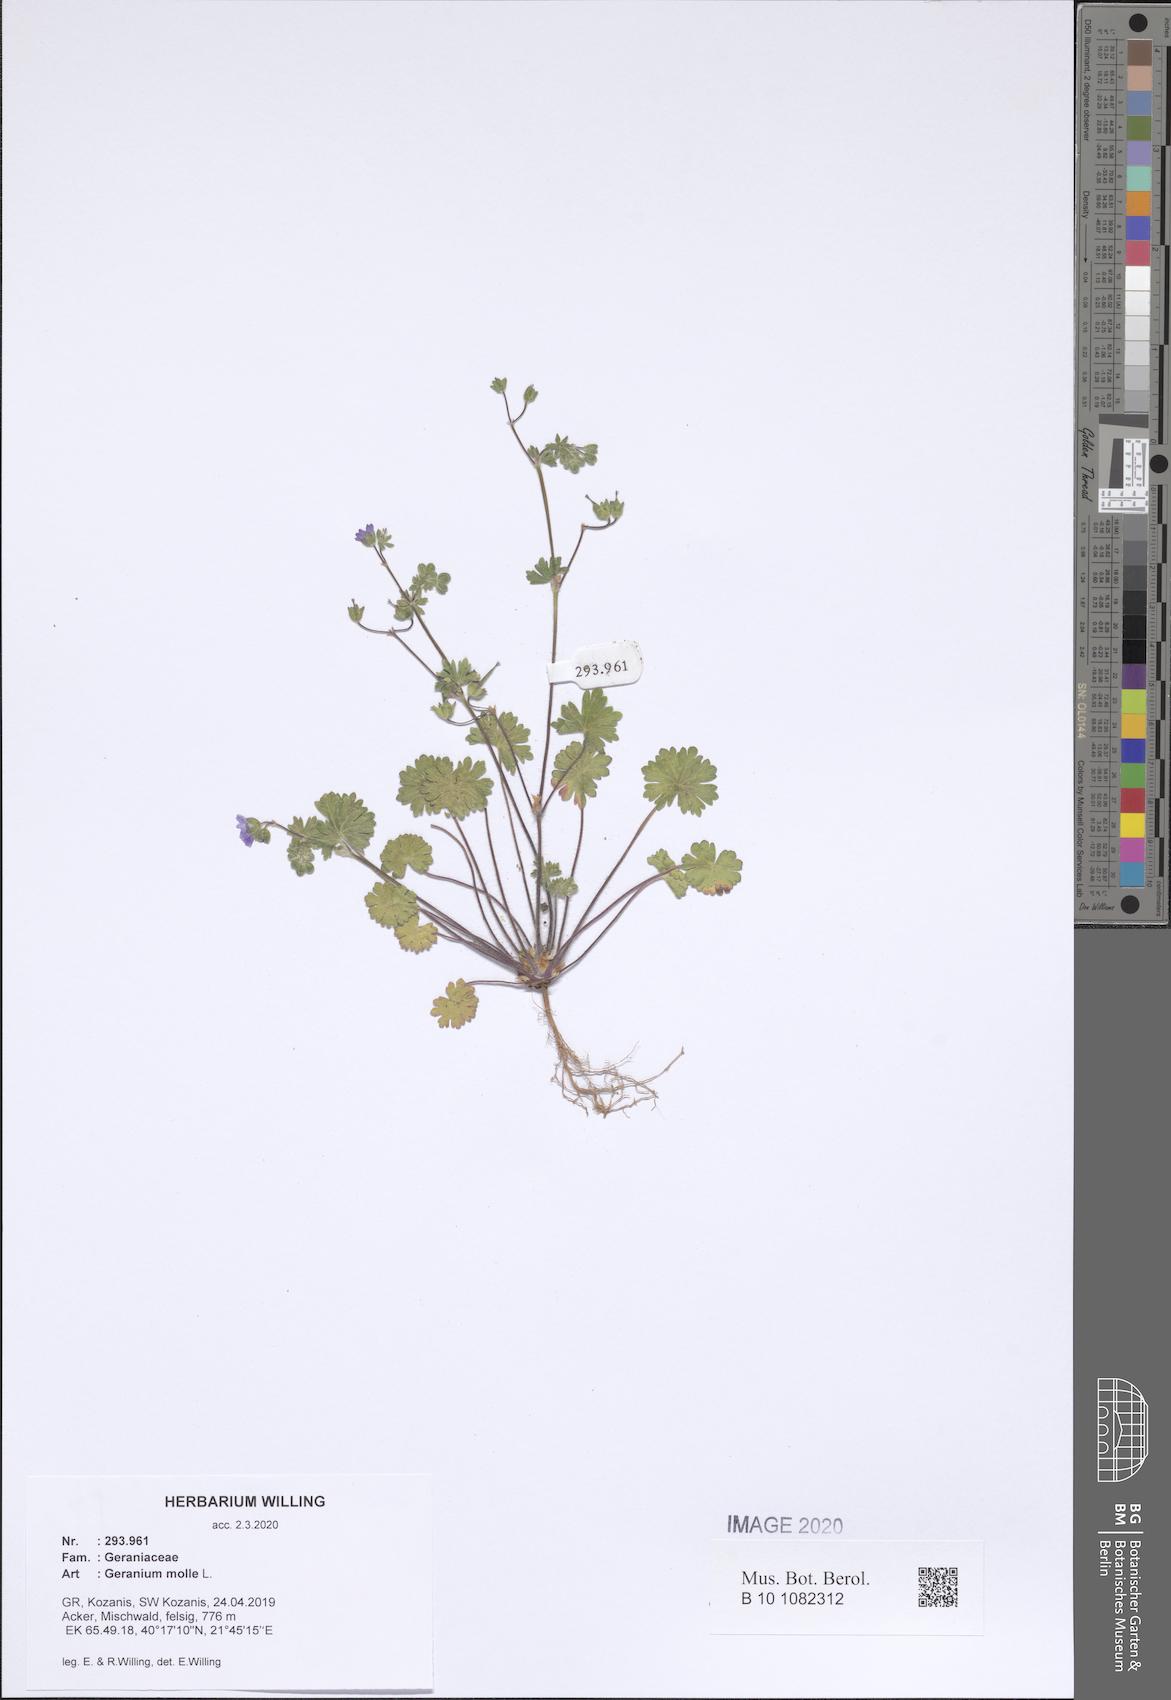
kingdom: Plantae
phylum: Tracheophyta
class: Magnoliopsida
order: Geraniales
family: Geraniaceae
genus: Geranium
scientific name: Geranium molle
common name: Dove's-foot crane's-bill
